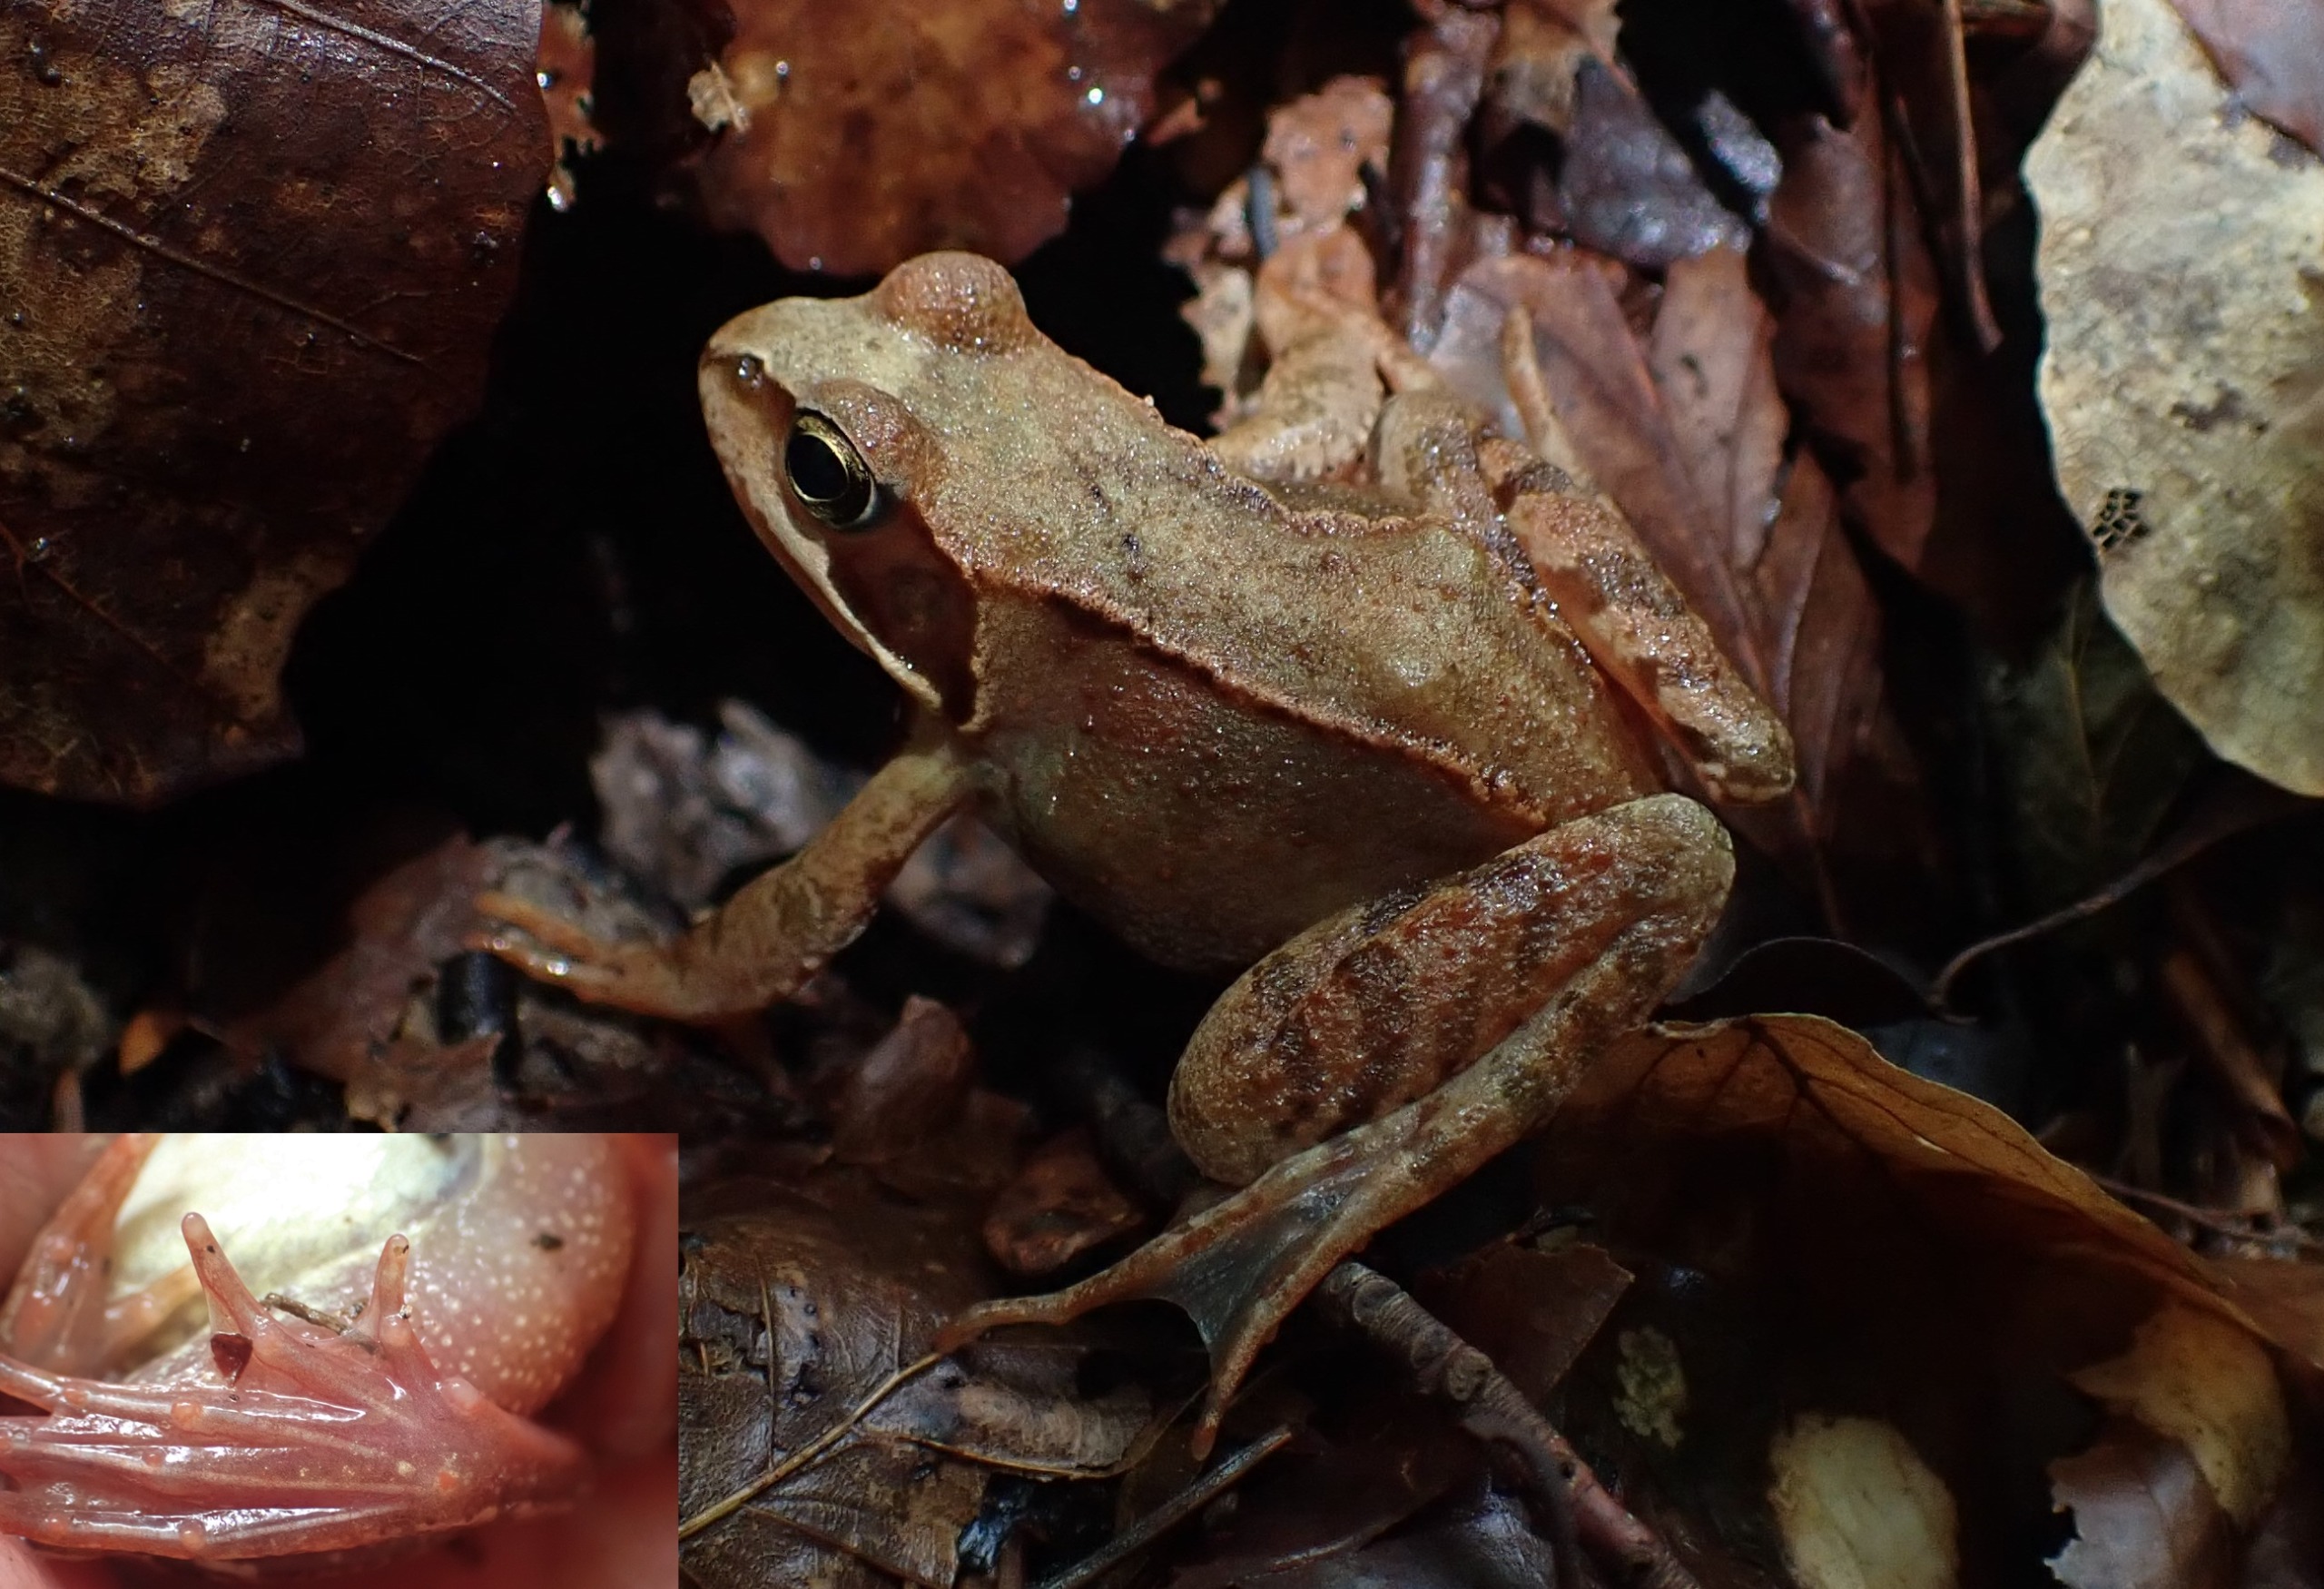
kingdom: Animalia
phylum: Chordata
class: Amphibia
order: Anura
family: Ranidae
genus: Rana
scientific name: Rana temporaria
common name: Butsnudet frø
